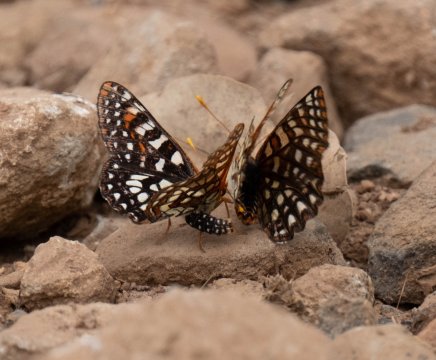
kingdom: Animalia
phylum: Arthropoda
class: Insecta
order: Lepidoptera
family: Nymphalidae
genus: Occidryas
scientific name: Occidryas chalcedona
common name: Chalcedon Checkerspot
